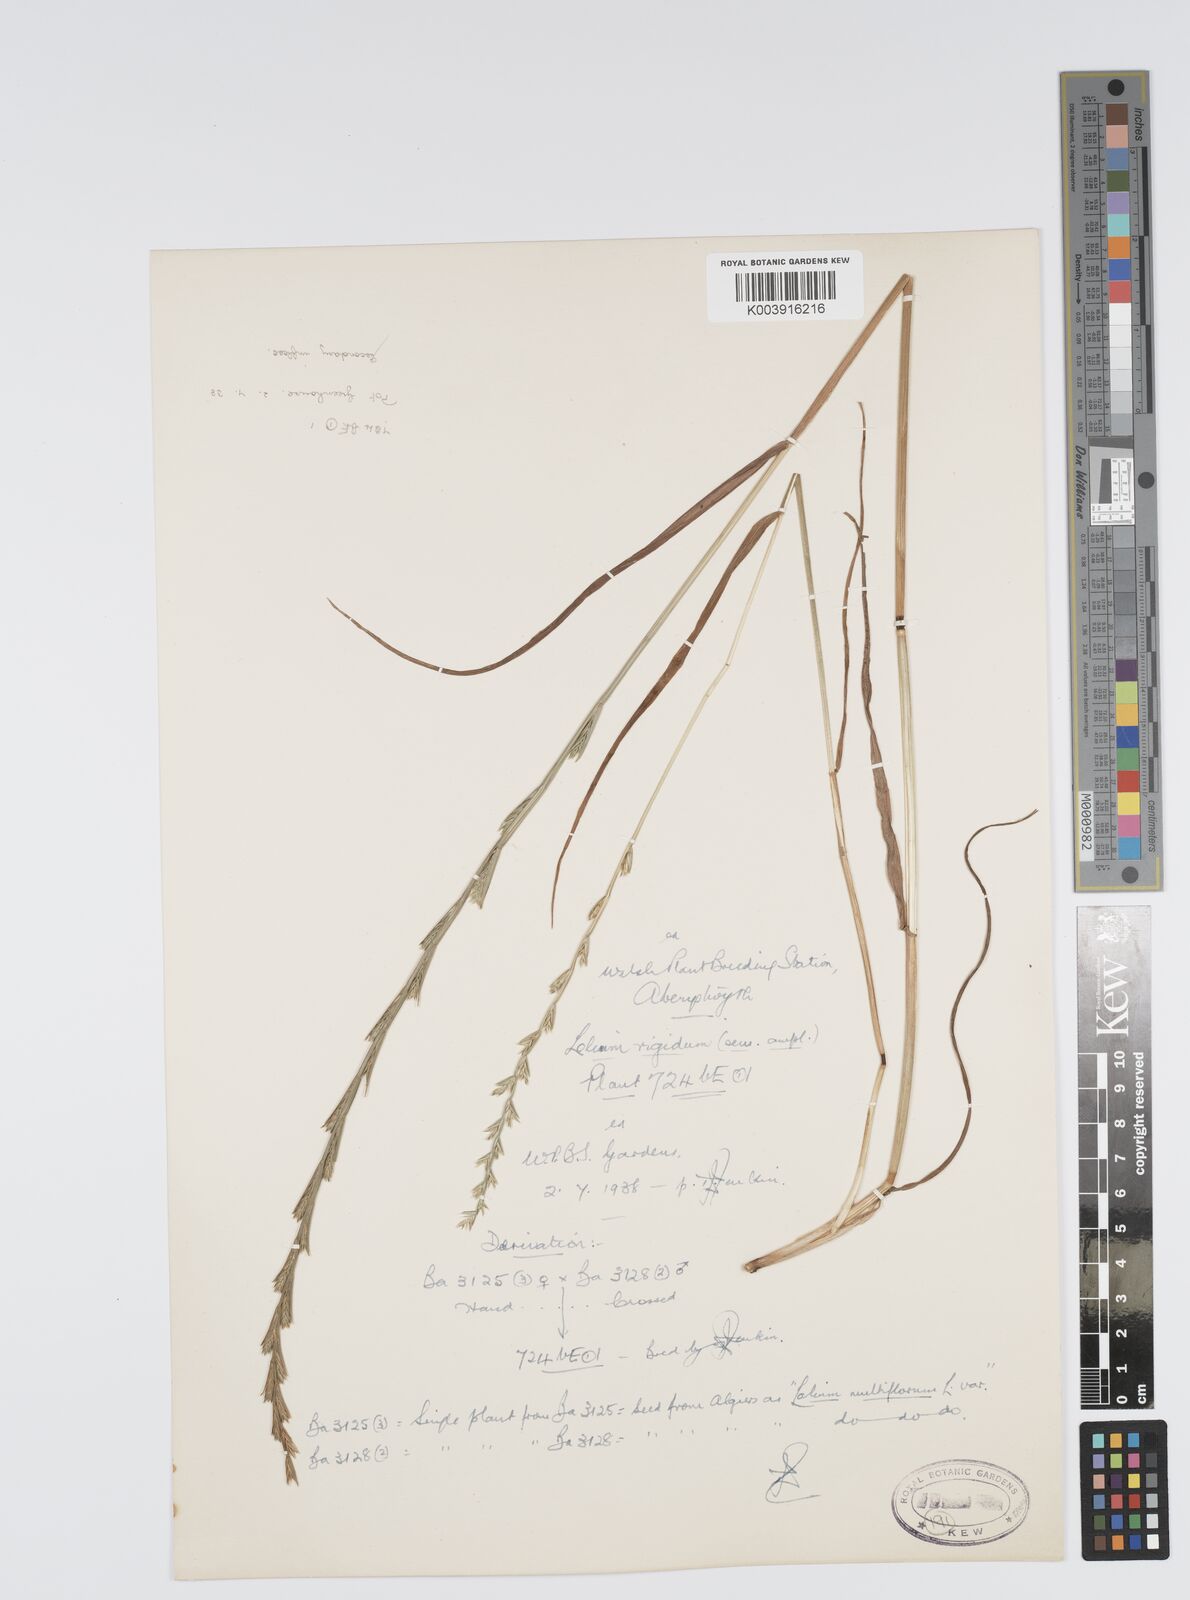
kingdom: Plantae
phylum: Tracheophyta
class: Liliopsida
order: Poales
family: Poaceae
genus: Lolium
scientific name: Lolium rigidum
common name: Wimmera ryegrass
